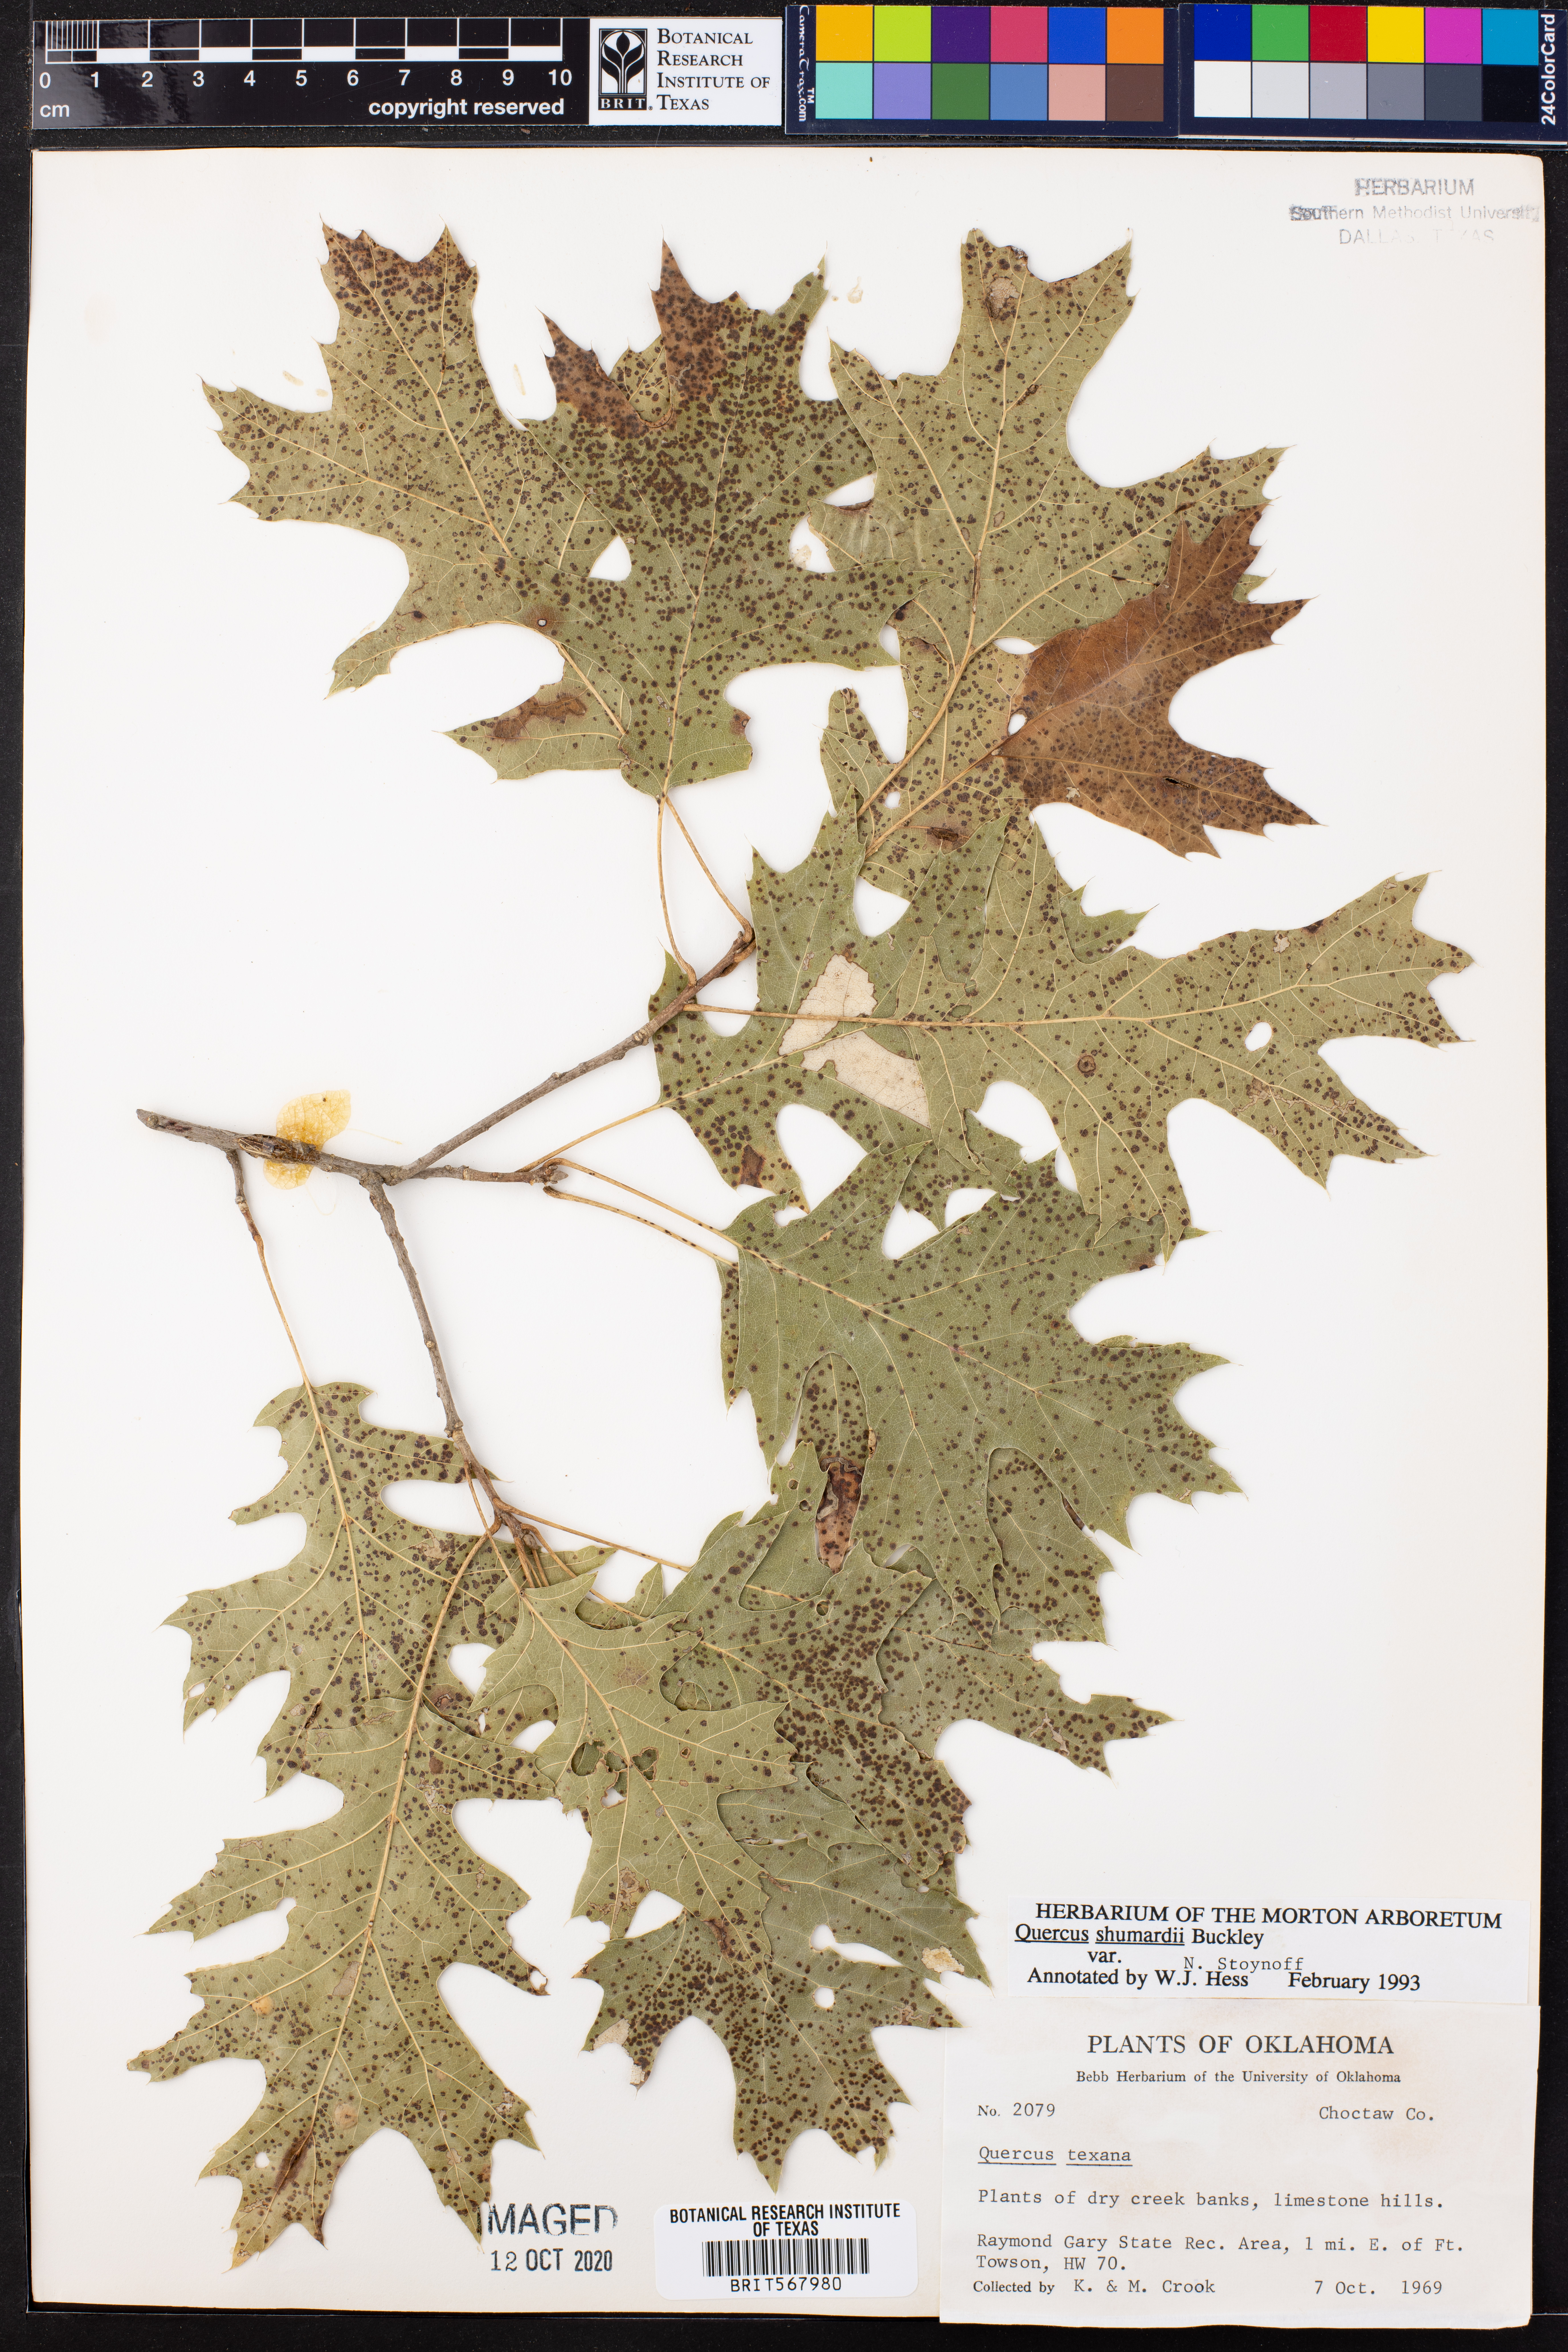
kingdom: Plantae
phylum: Tracheophyta
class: Magnoliopsida
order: Fagales
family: Fagaceae
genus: Quercus
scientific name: Quercus shumardii
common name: Shumard oak
